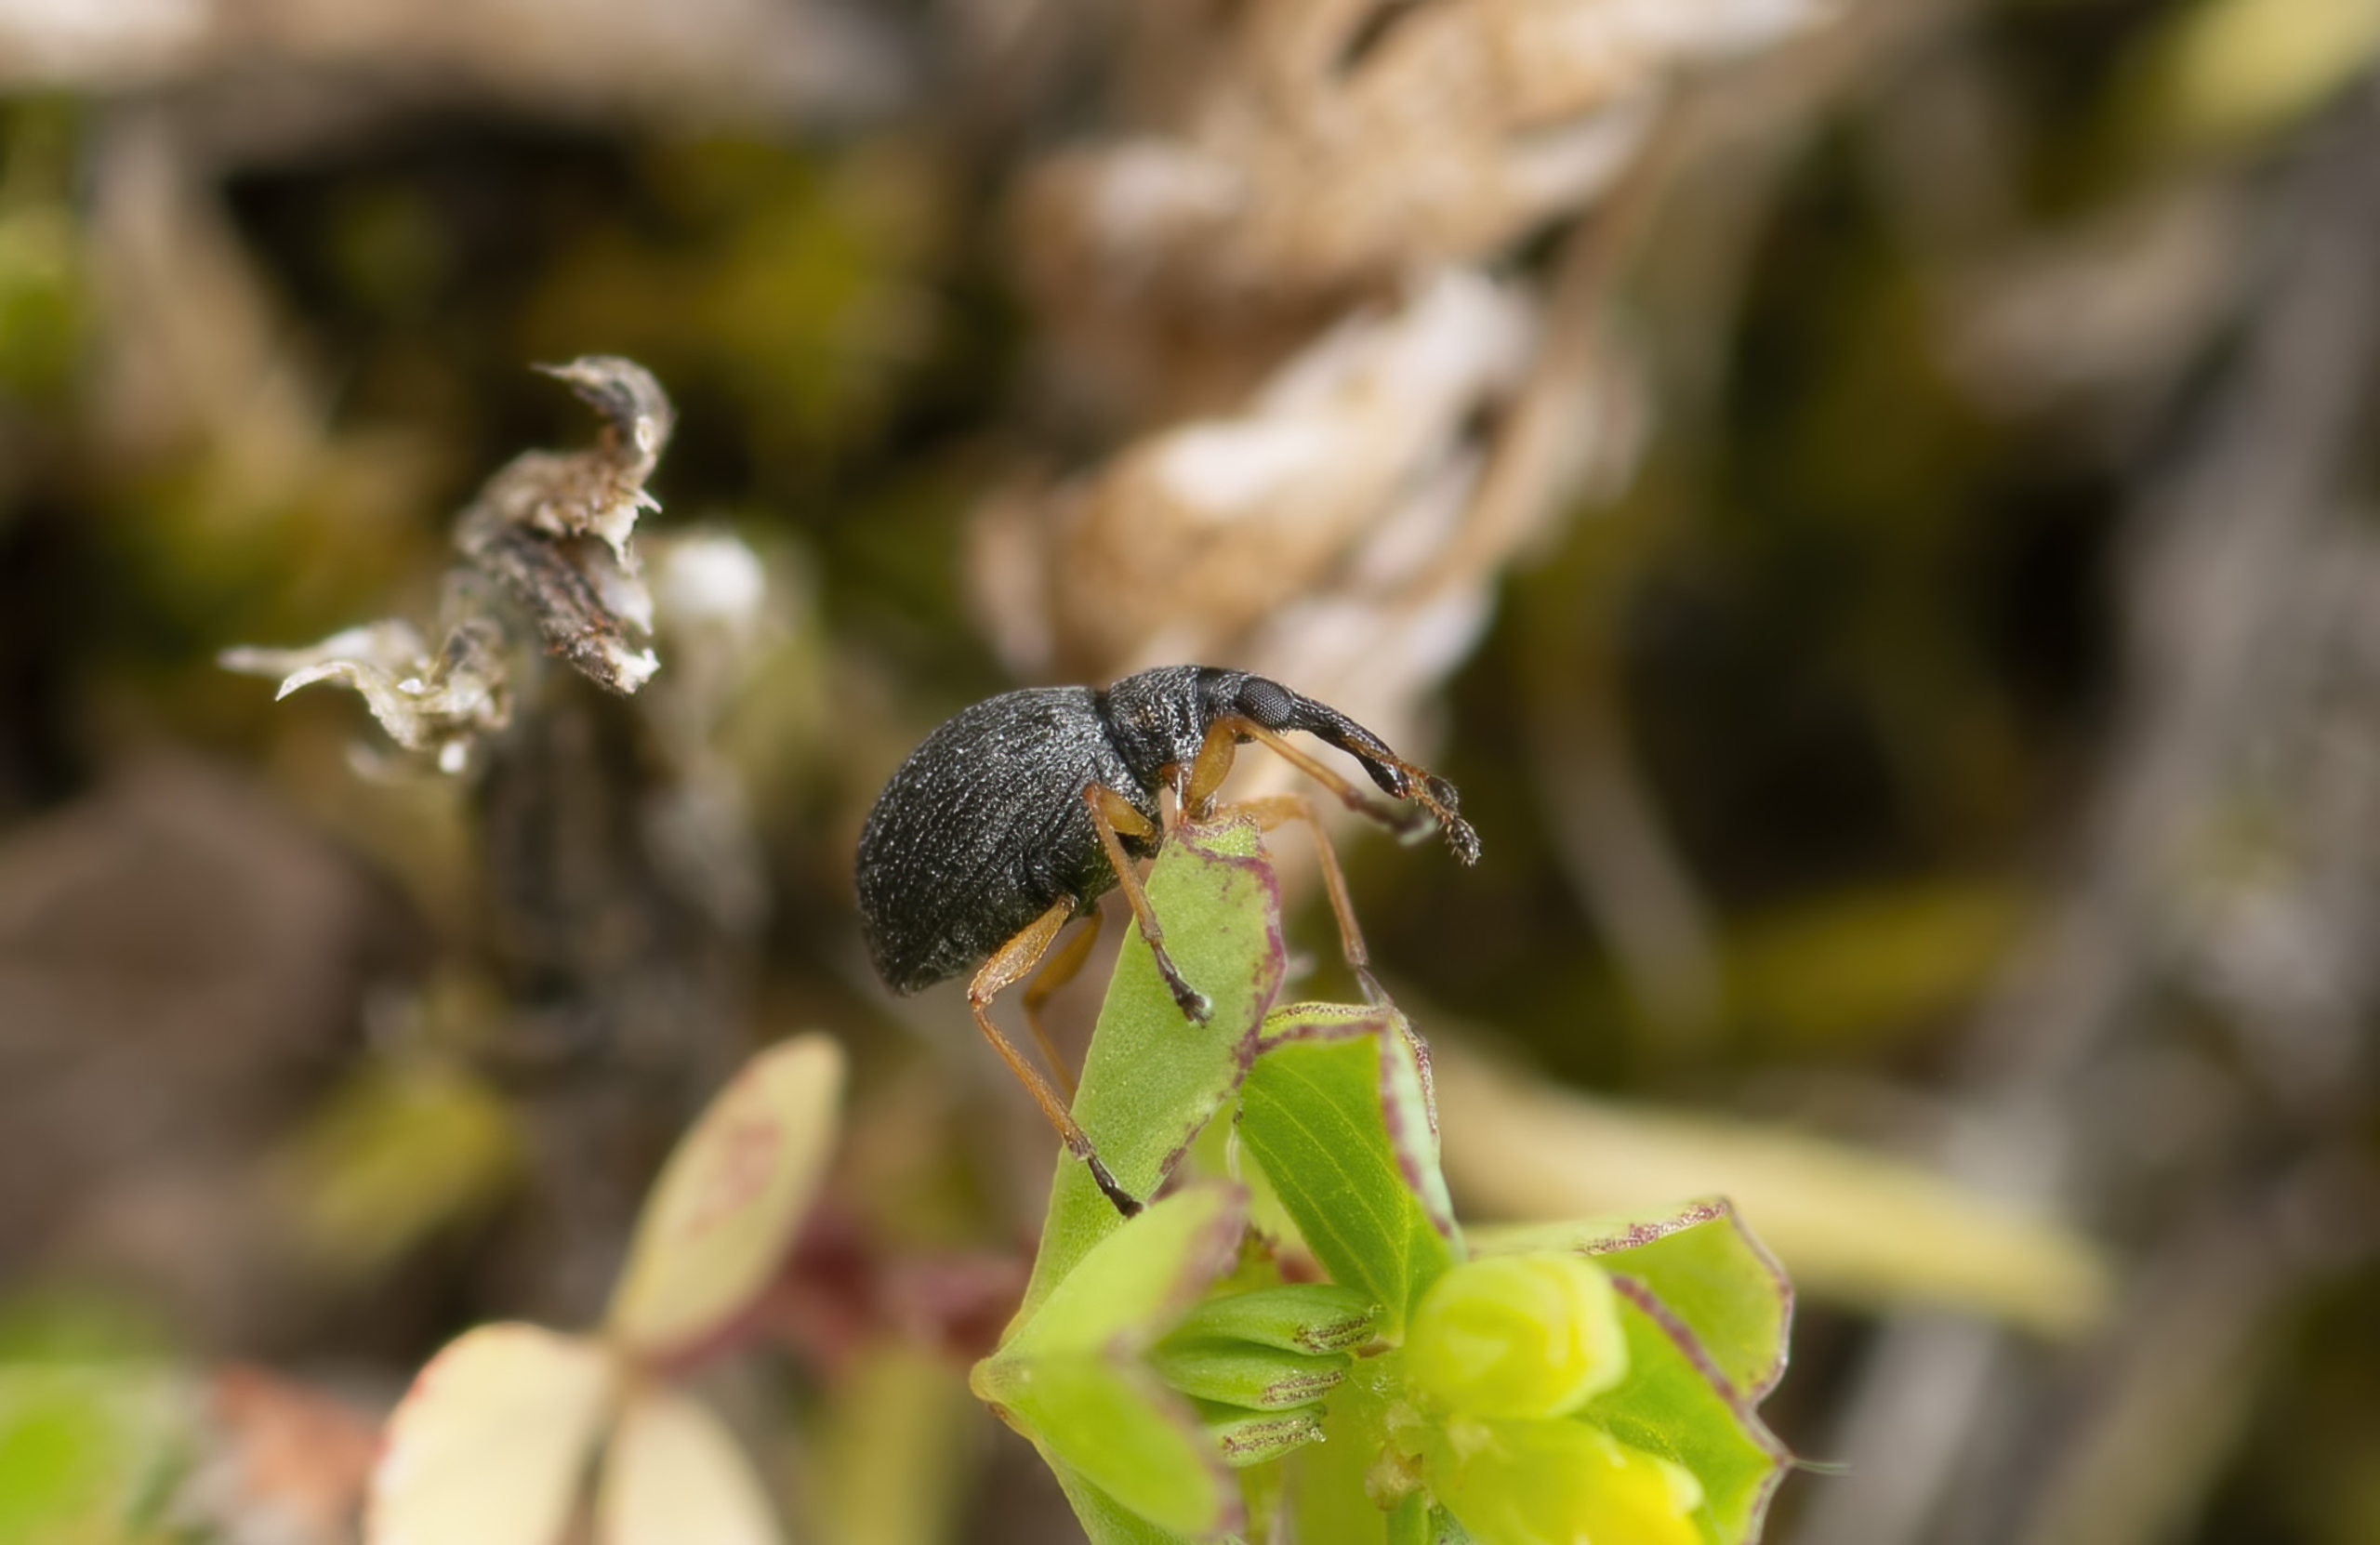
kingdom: Animalia
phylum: Arthropoda
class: Insecta
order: Coleoptera
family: Apionidae
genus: Protapion
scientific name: Protapion nigritarse
